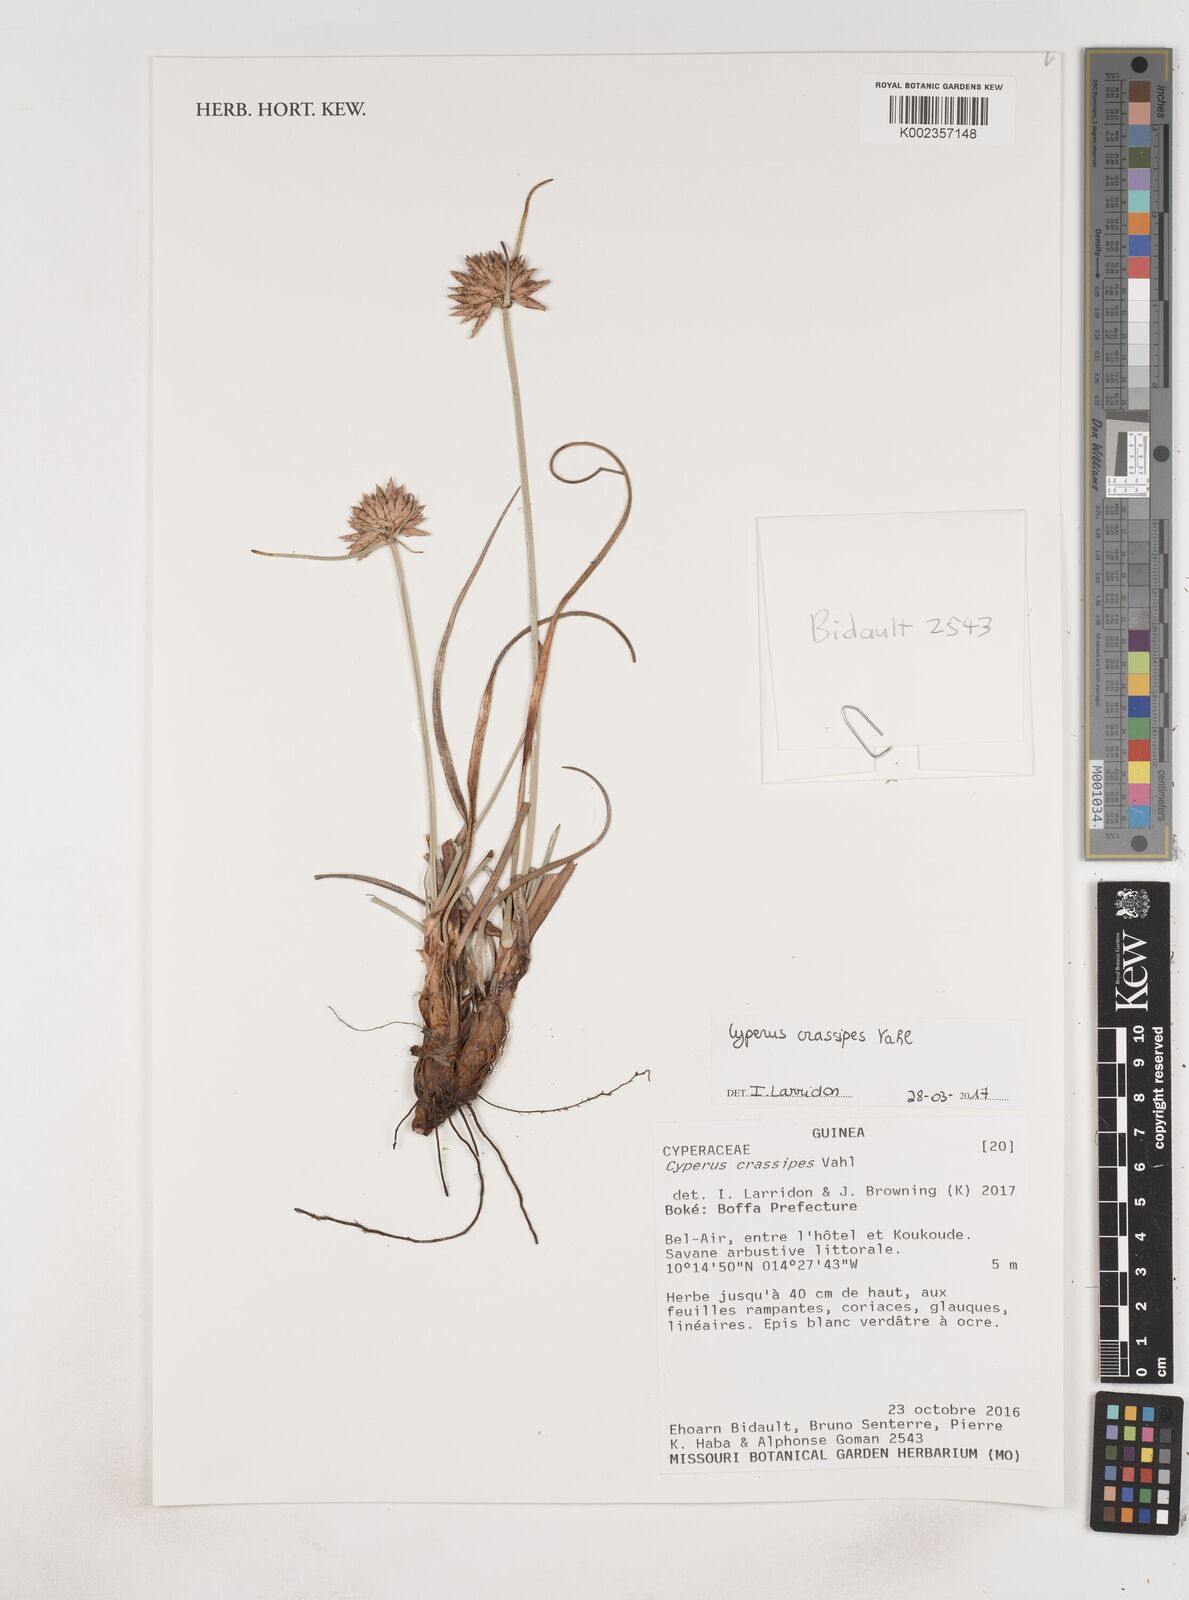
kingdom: Plantae
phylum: Tracheophyta
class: Liliopsida
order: Poales
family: Cyperaceae
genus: Cyperus
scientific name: Cyperus crassipes
